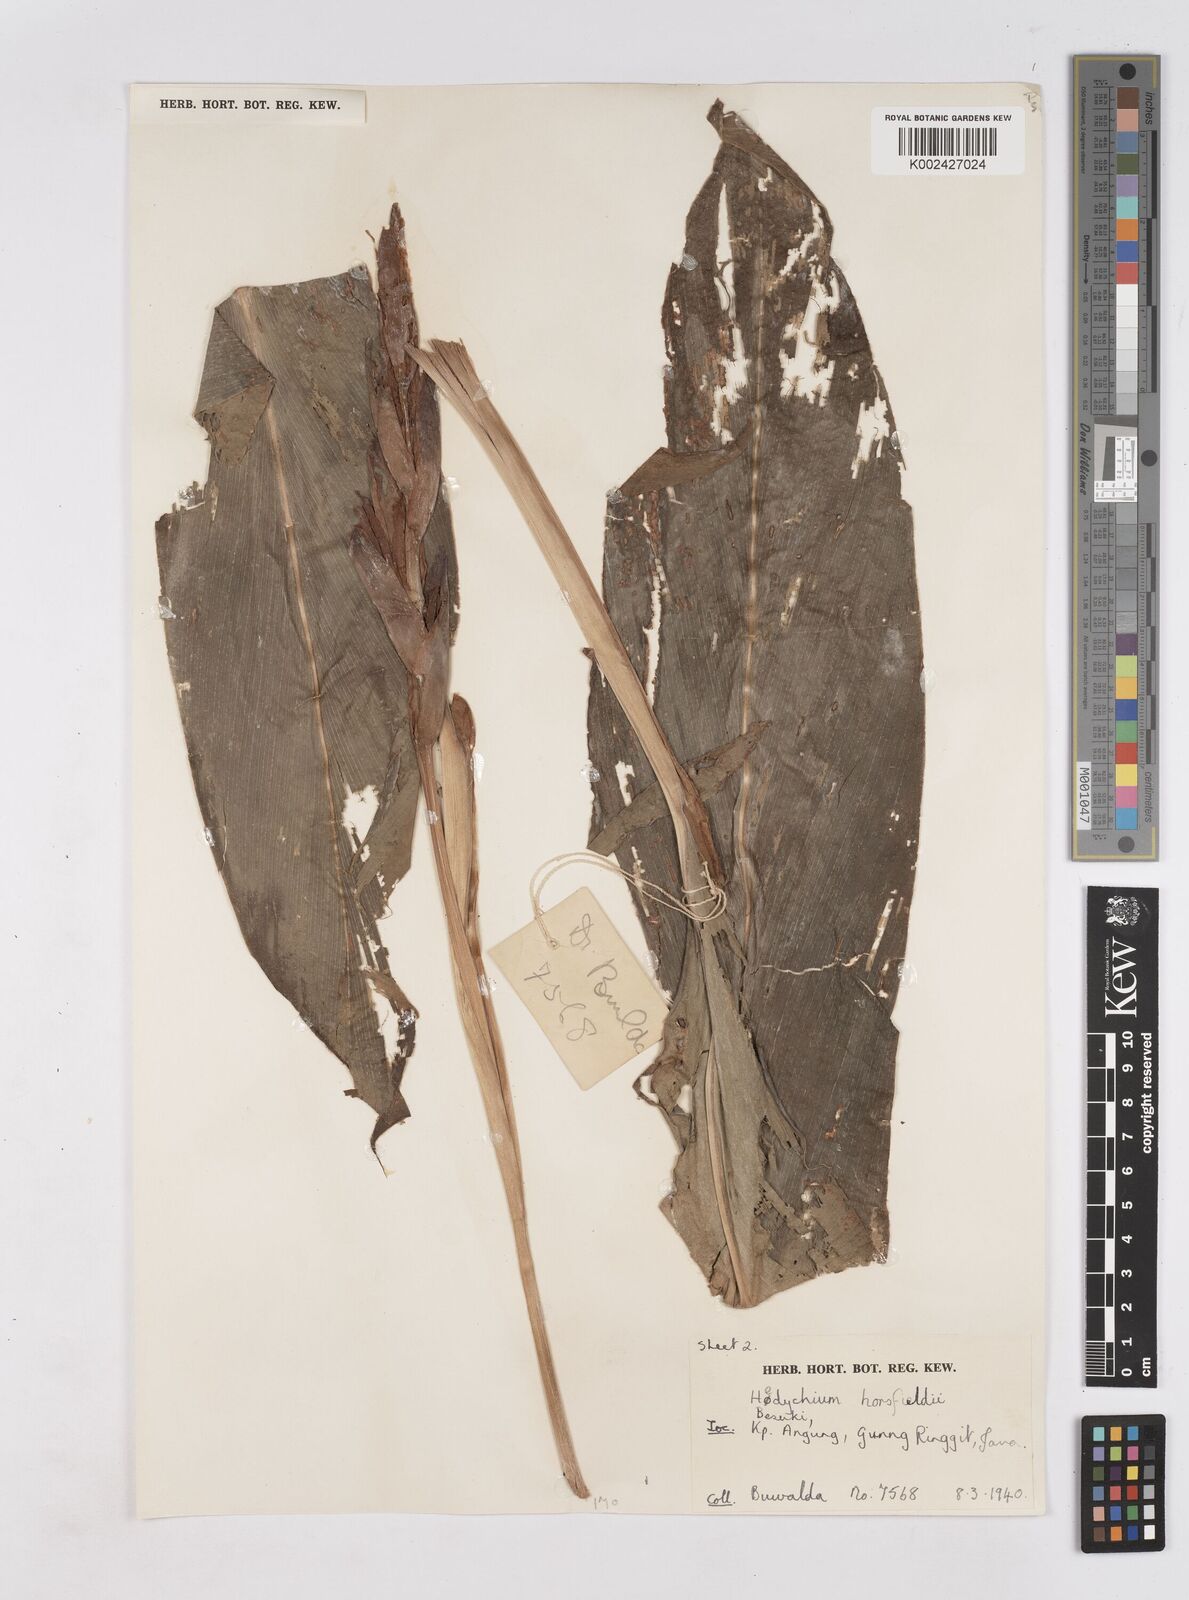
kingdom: Plantae
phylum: Tracheophyta
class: Liliopsida
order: Zingiberales
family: Zingiberaceae
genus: Hedychium
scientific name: Hedychium horsfieldii
